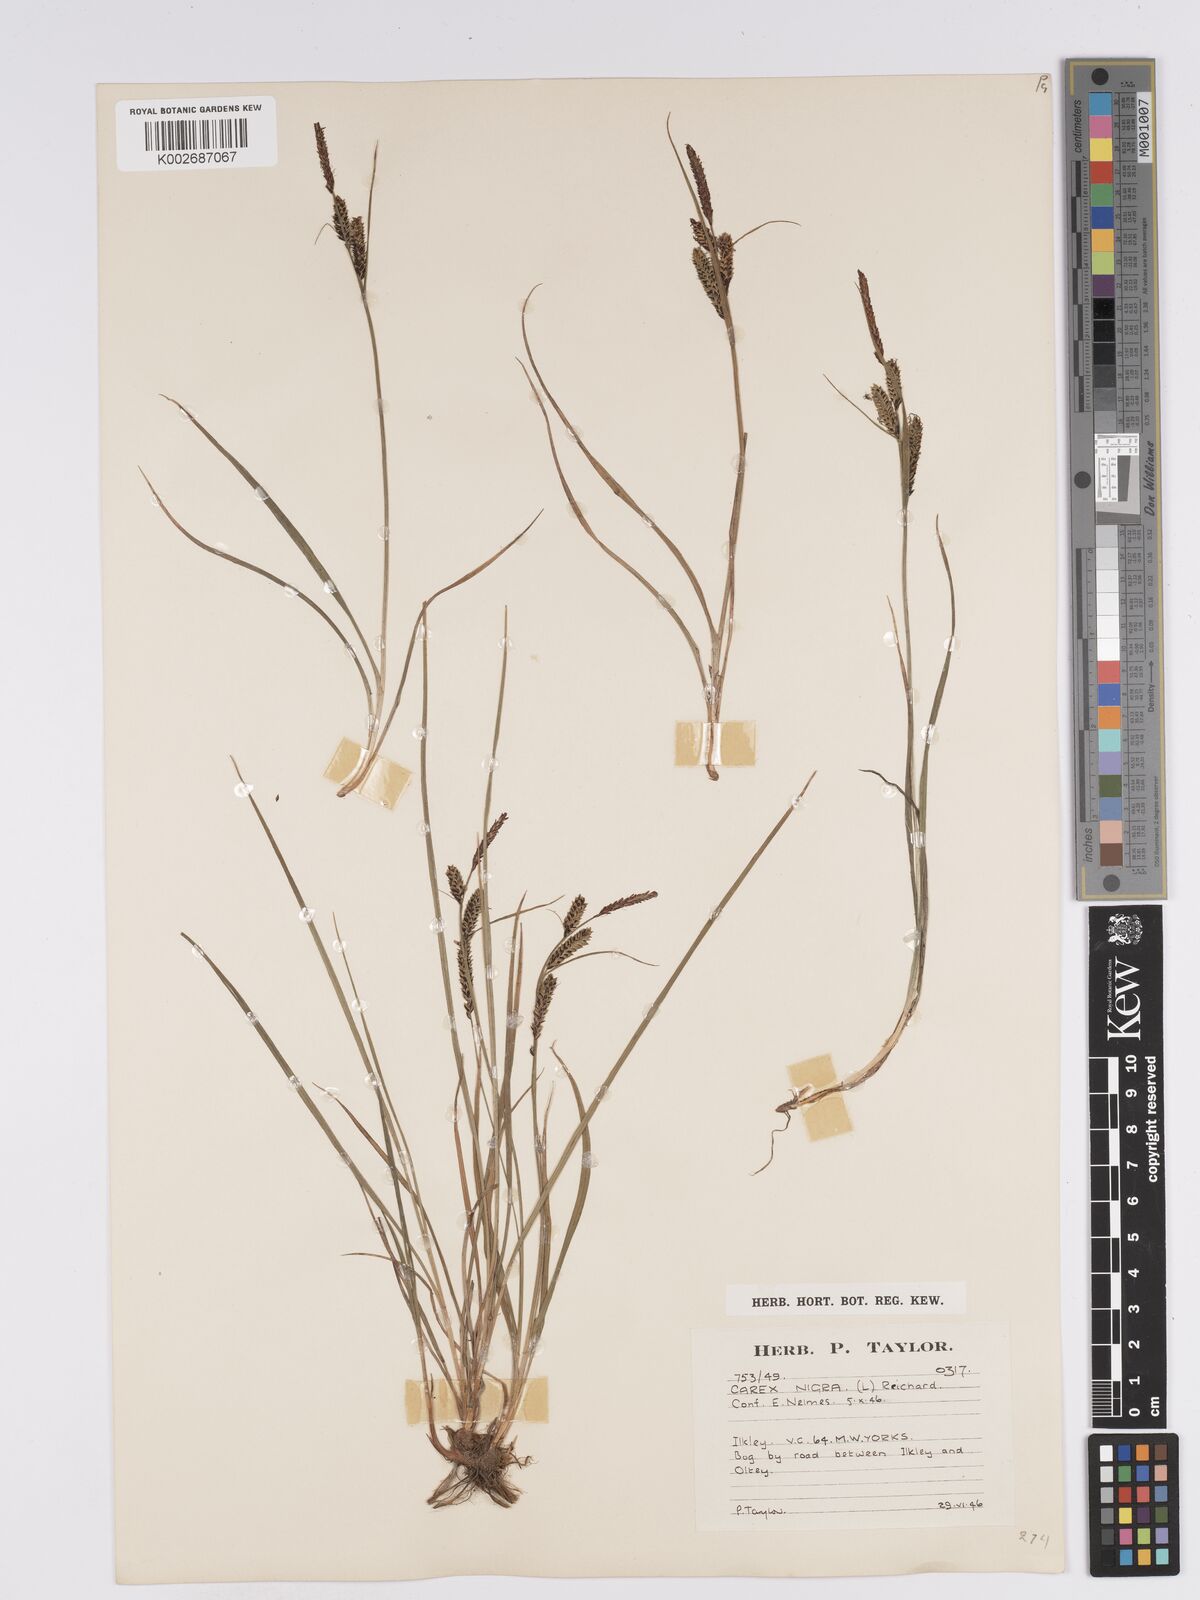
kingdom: Plantae
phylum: Tracheophyta
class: Liliopsida
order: Poales
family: Cyperaceae
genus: Carex
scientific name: Carex nigra
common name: Common sedge
